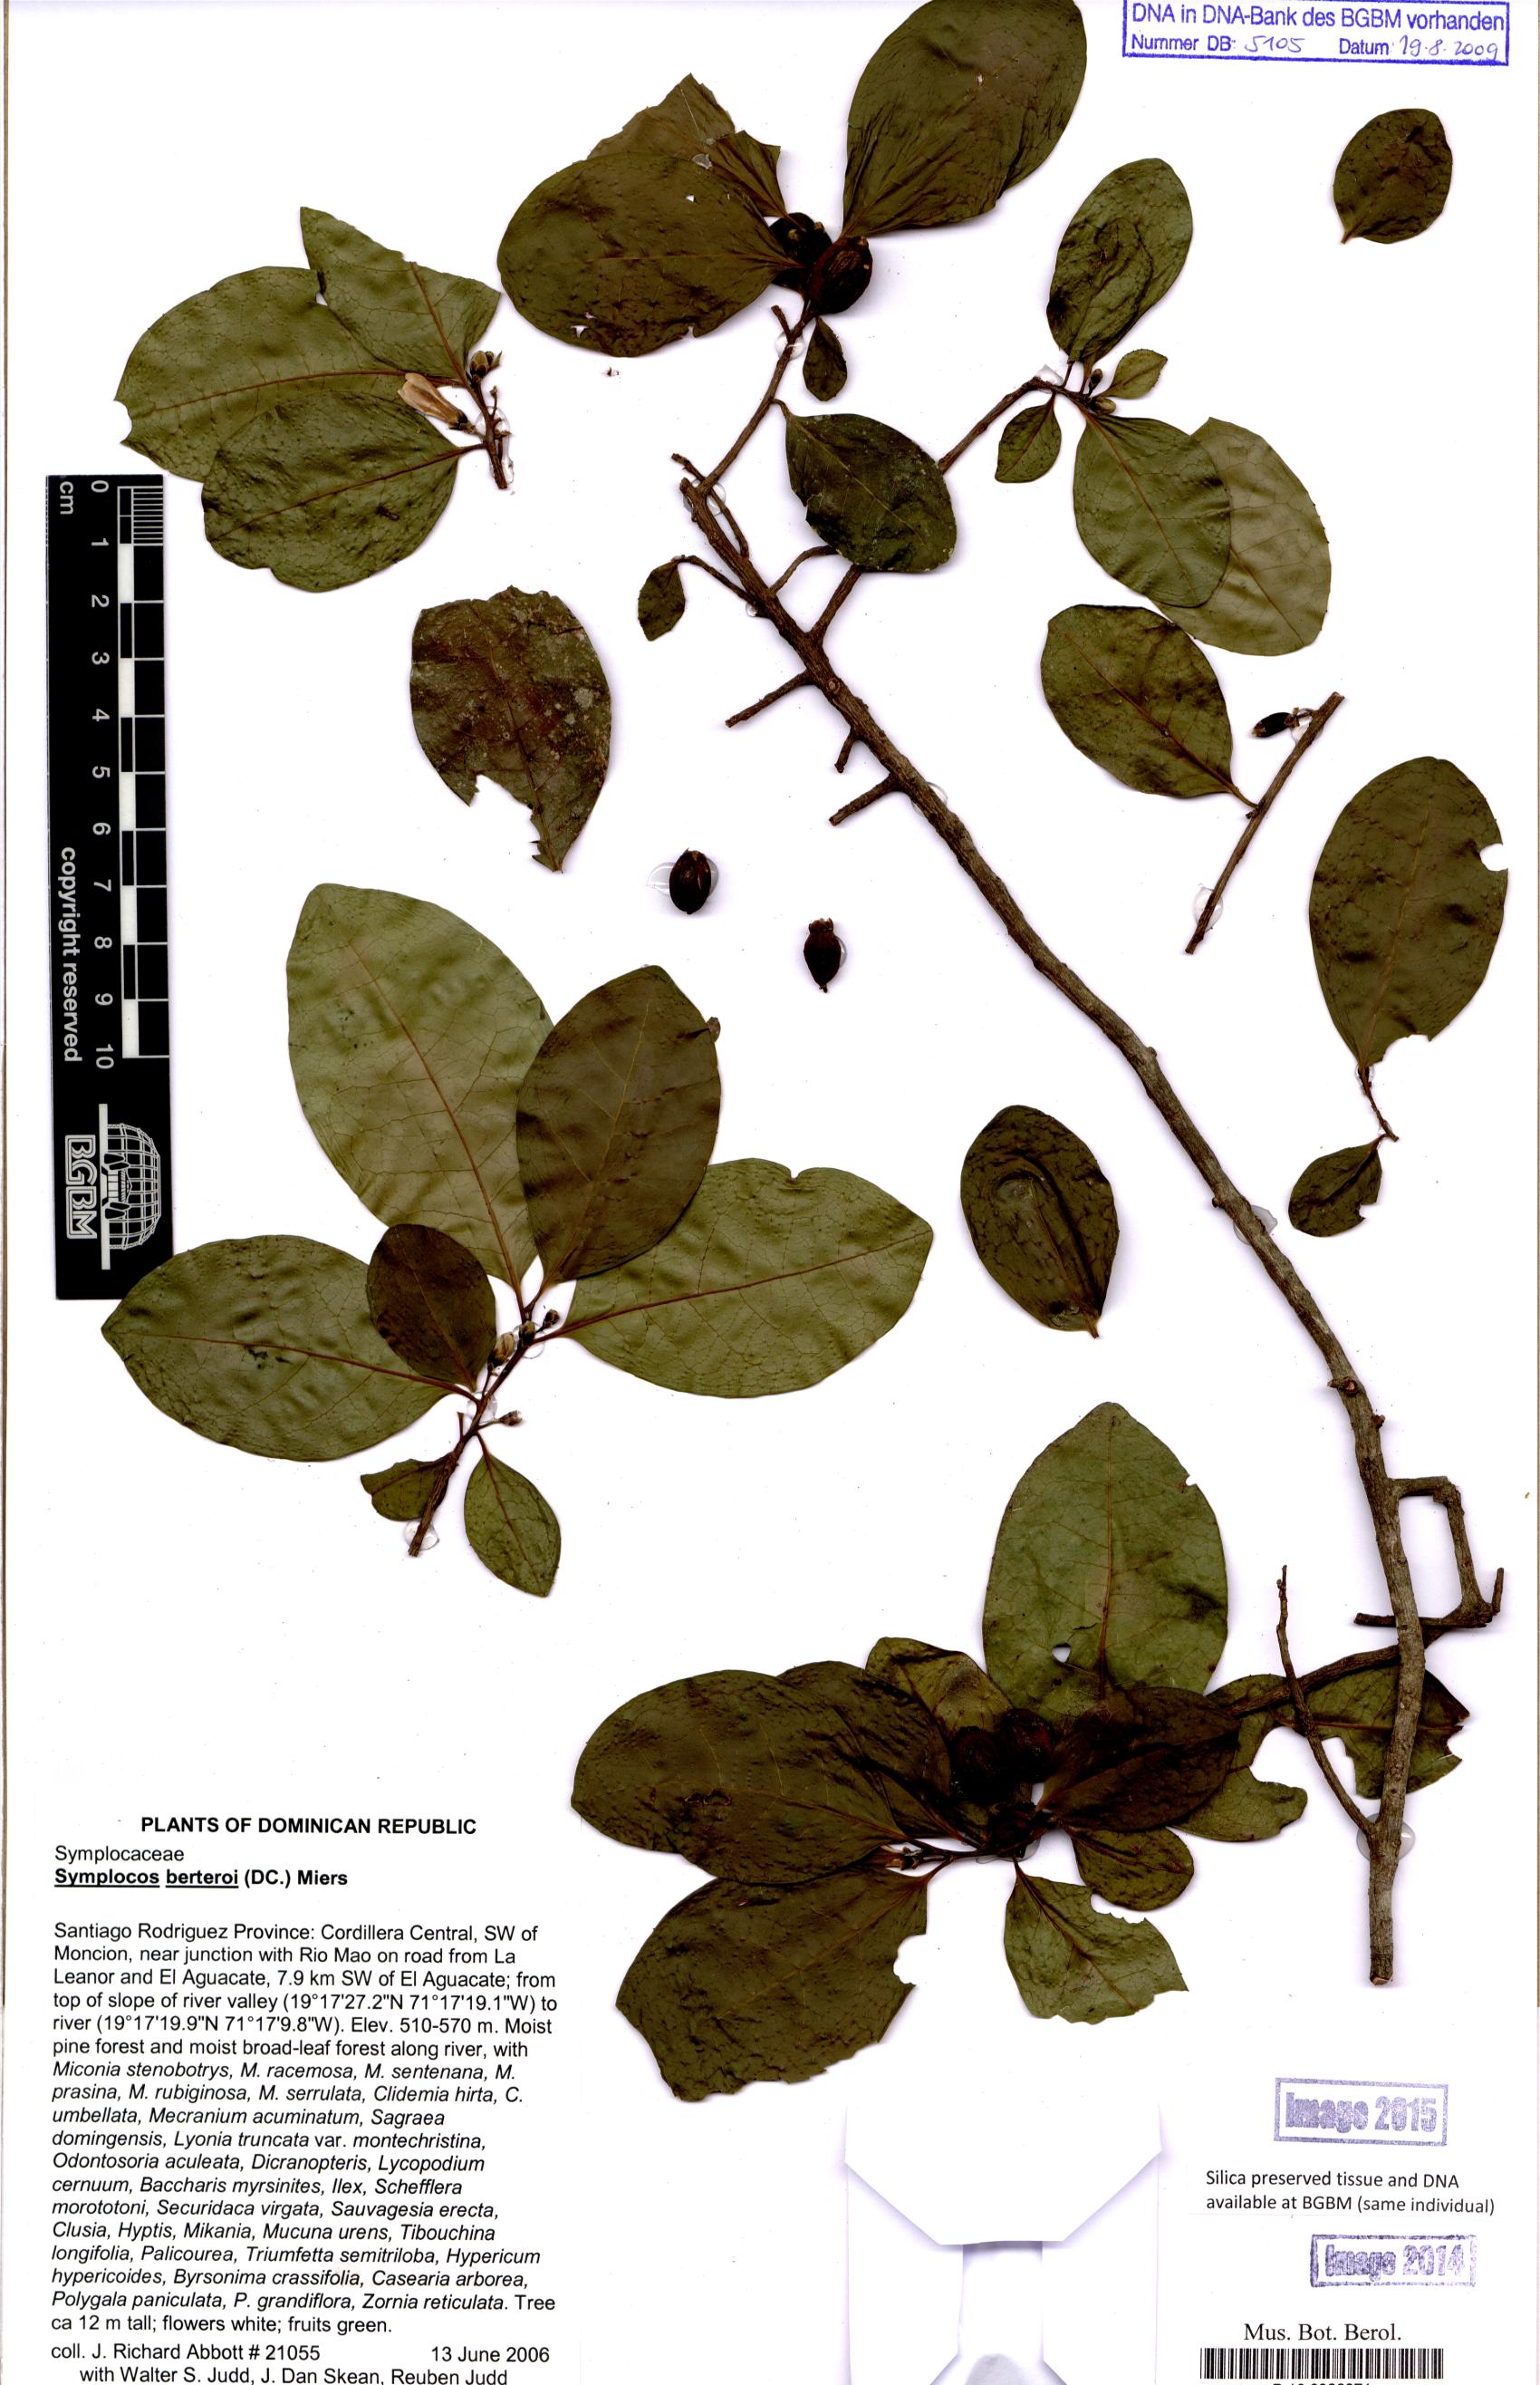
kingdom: Plantae
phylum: Tracheophyta
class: Magnoliopsida
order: Ericales
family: Symplocaceae
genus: Symplocos
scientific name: Symplocos cubensis
